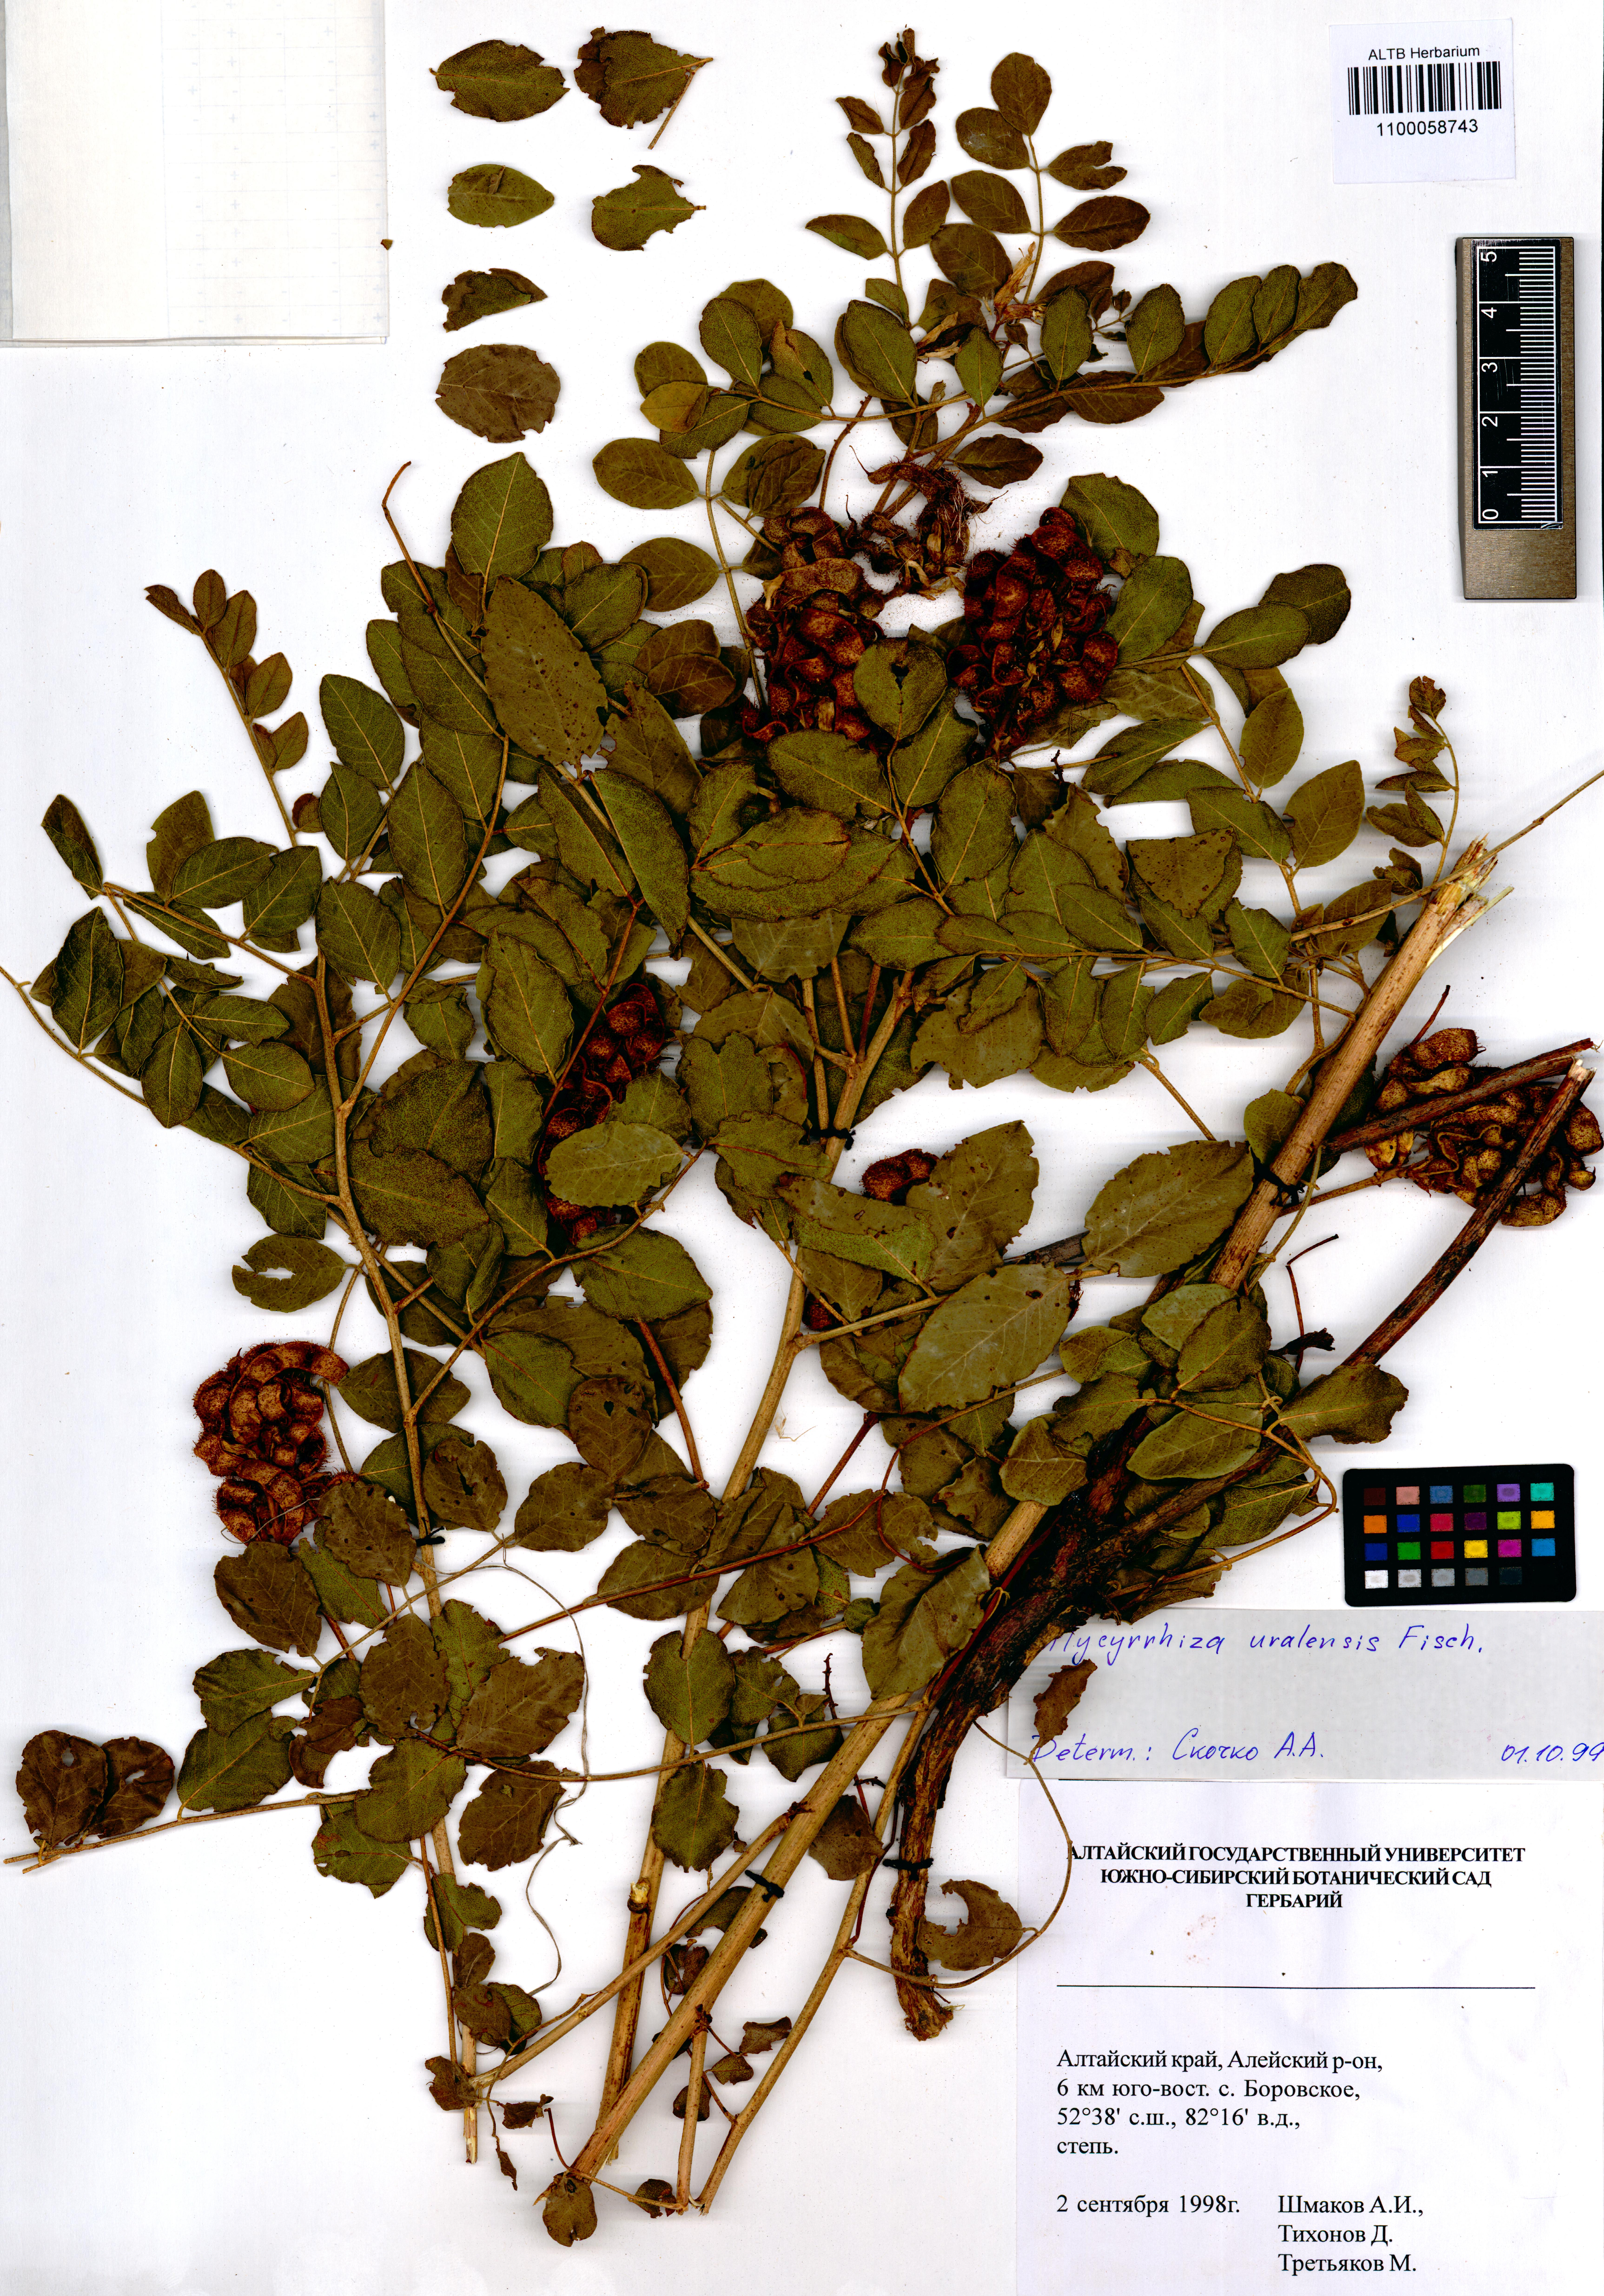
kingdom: Plantae
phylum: Tracheophyta
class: Magnoliopsida
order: Fabales
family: Fabaceae
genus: Glycyrrhiza
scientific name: Glycyrrhiza uralensis
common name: Chinese licorice
